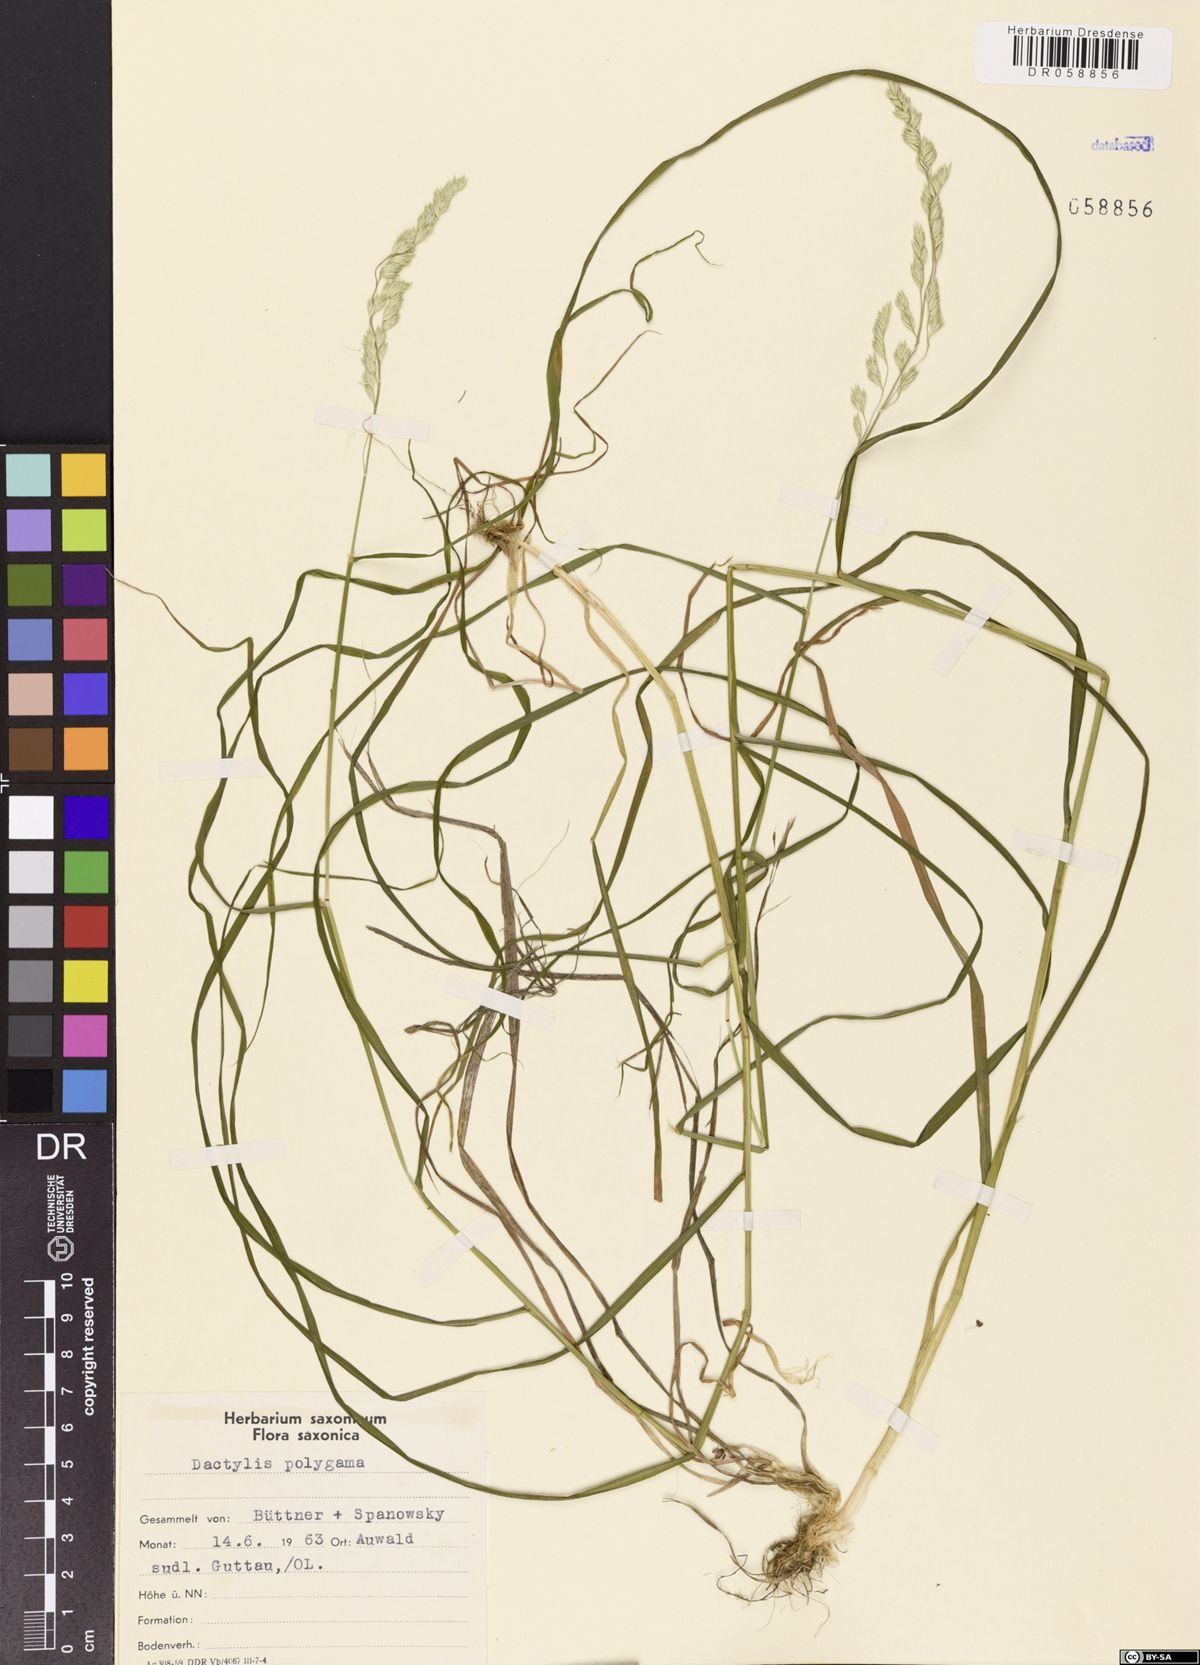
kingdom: Plantae
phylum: Tracheophyta
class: Liliopsida
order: Poales
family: Poaceae
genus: Dactylis
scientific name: Dactylis glomerata
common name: Orchardgrass
